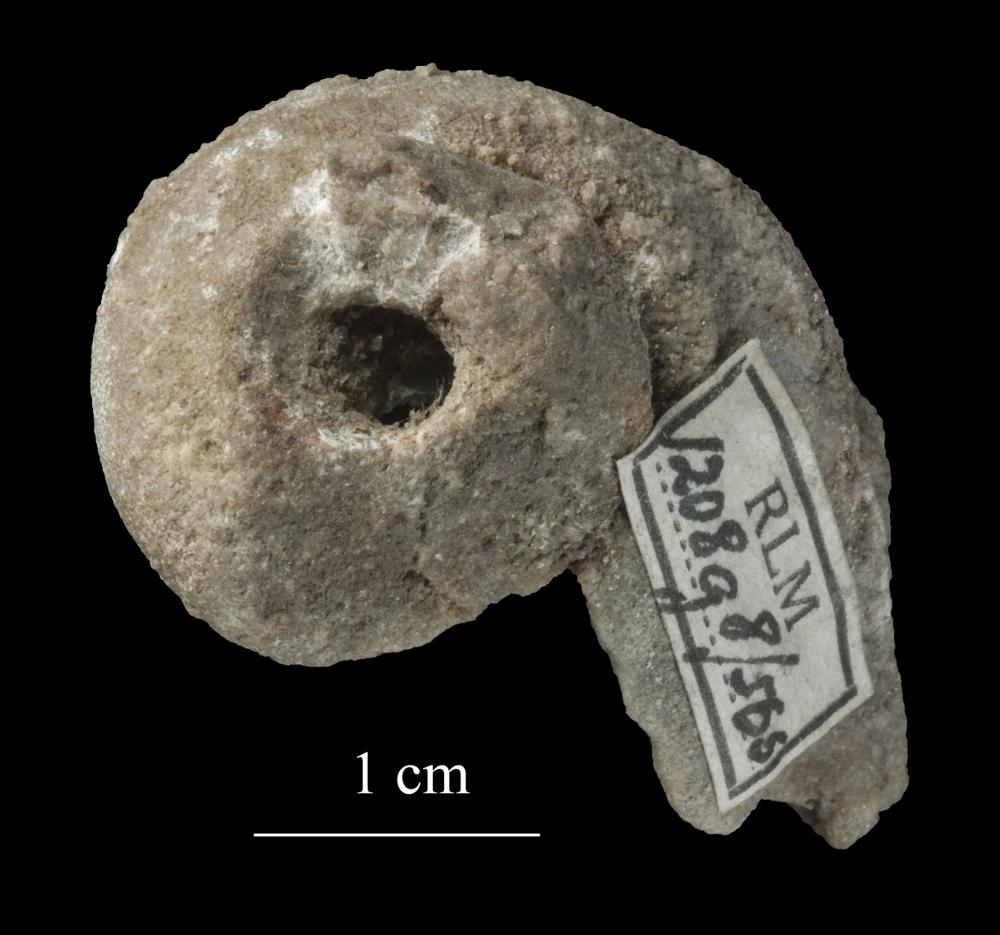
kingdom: Animalia
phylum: Mollusca
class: Gastropoda
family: Lophospiridae
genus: Lophospira
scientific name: Lophospira
